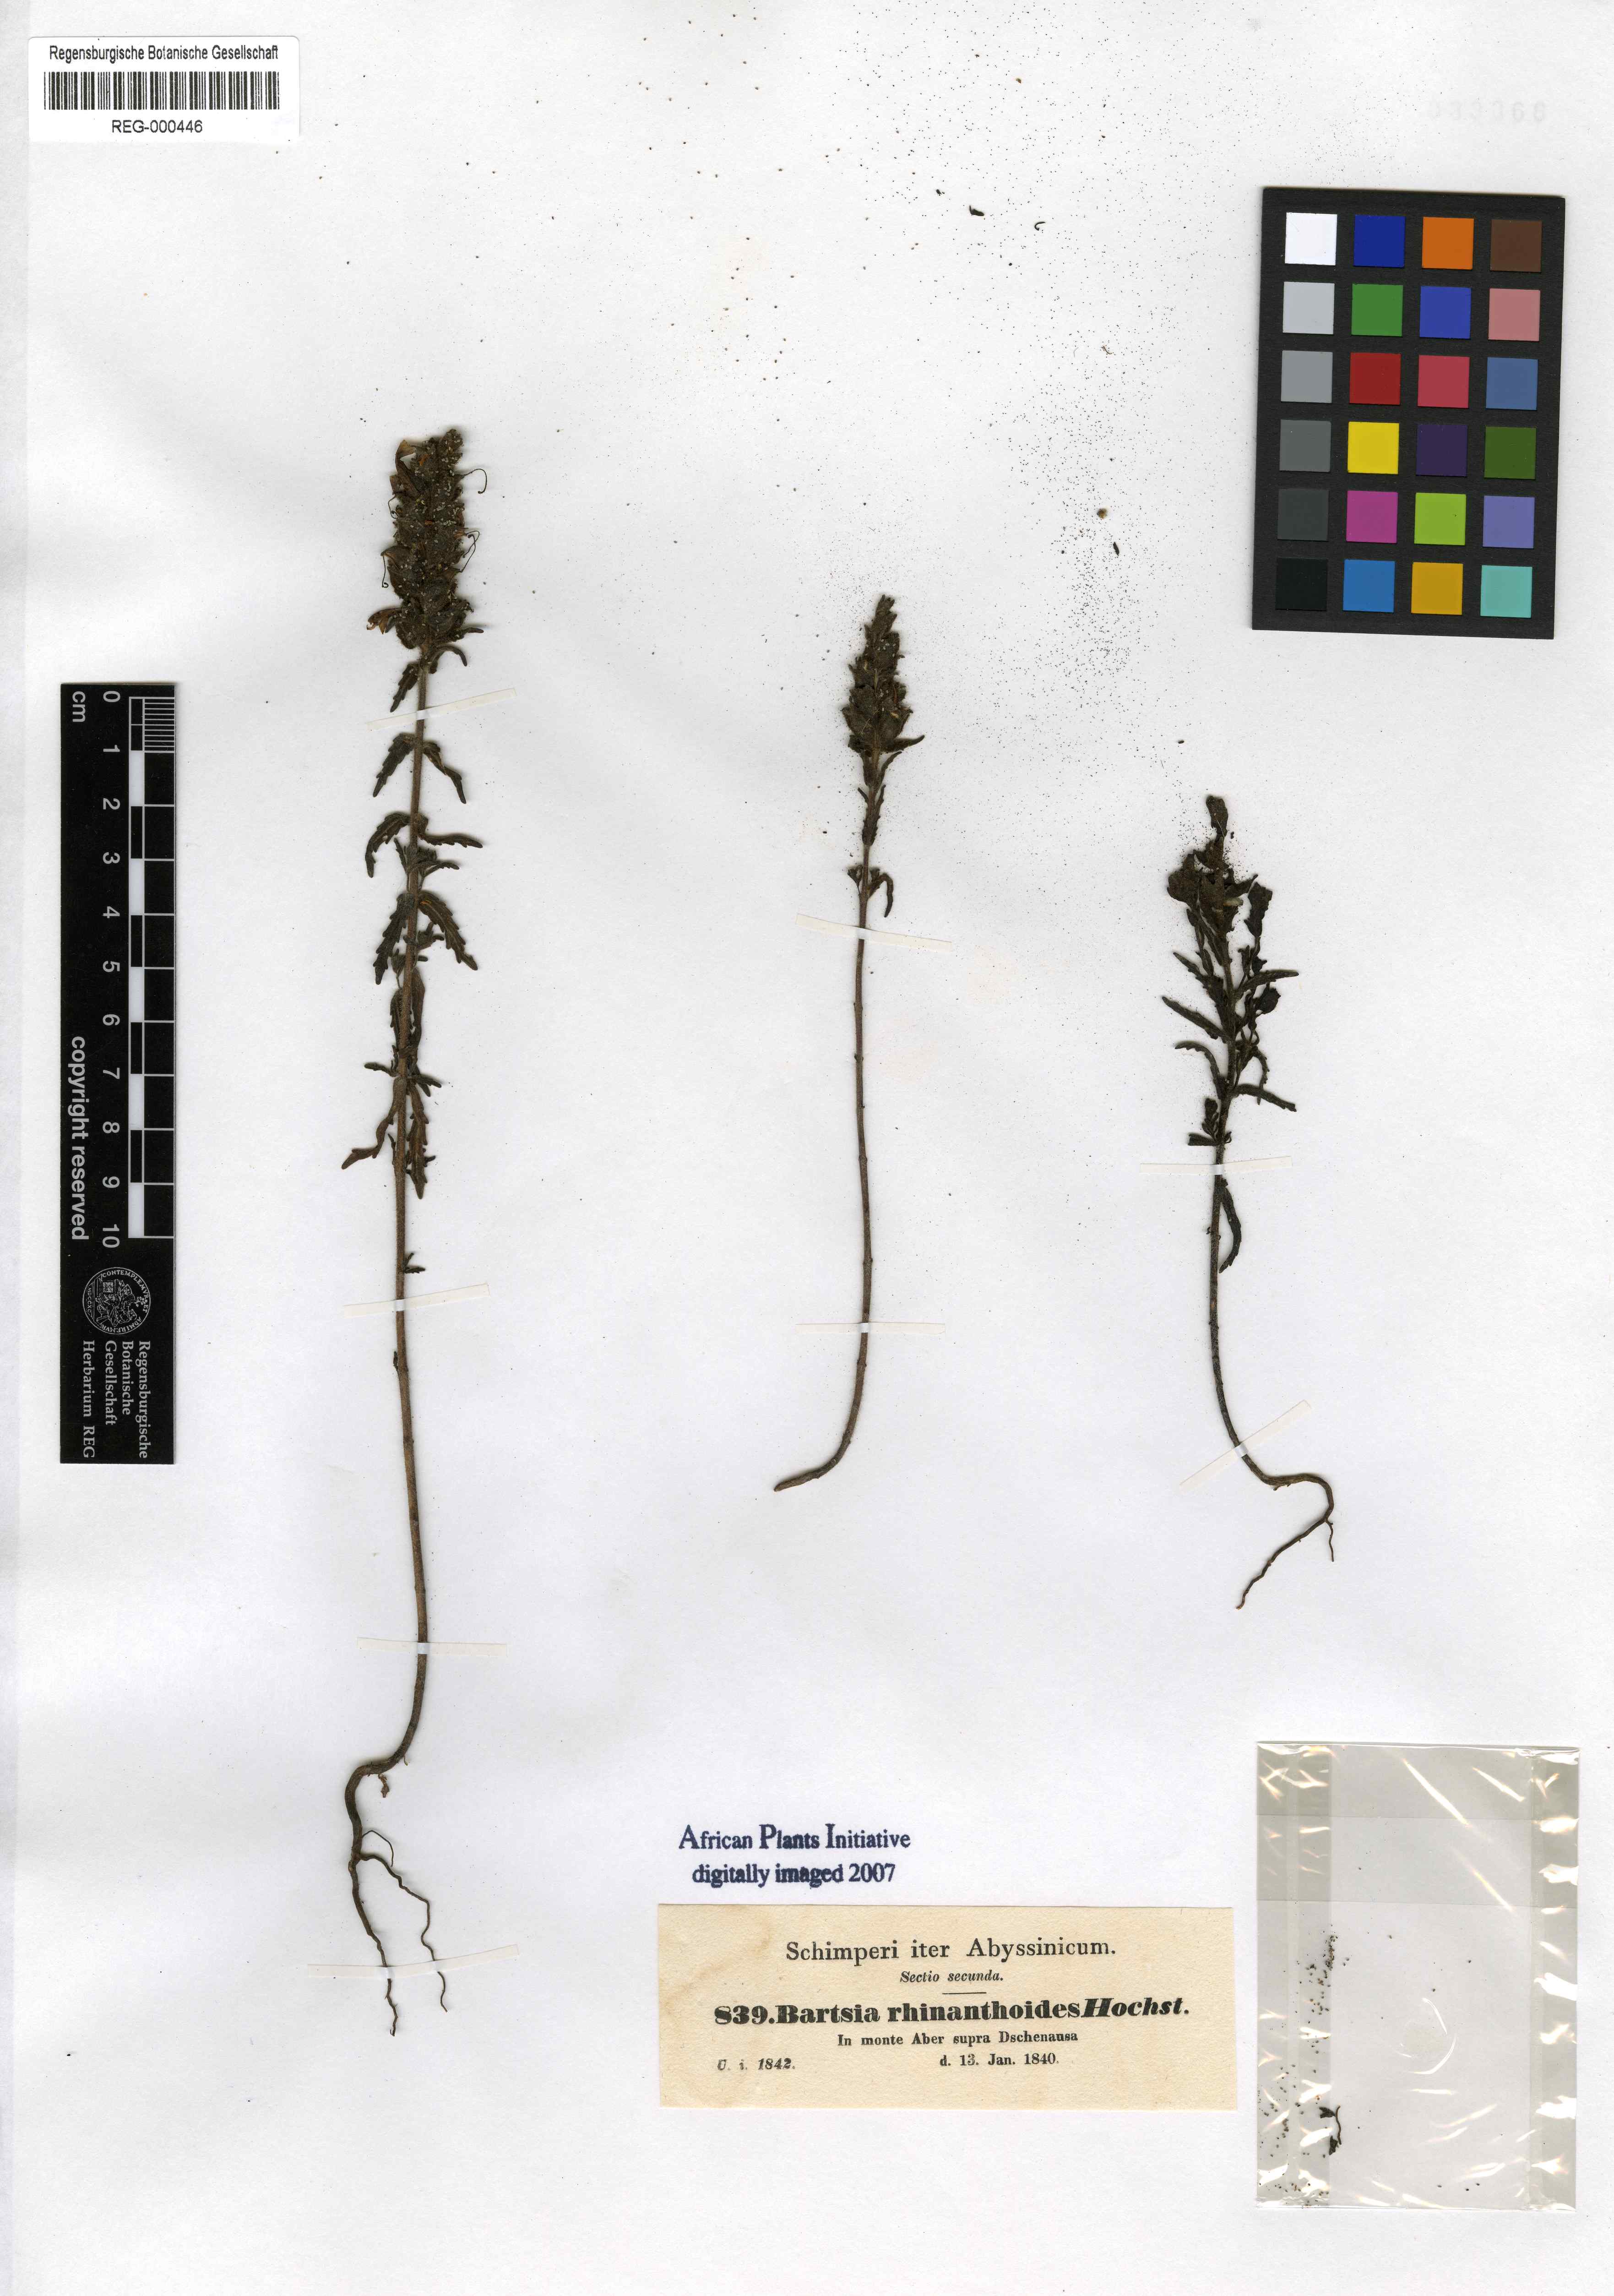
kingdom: Plantae
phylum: Tracheophyta
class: Magnoliopsida
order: Lamiales
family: Orobanchaceae
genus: Bellardia
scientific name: Bellardia trixago
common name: Mediterranean lineseed
